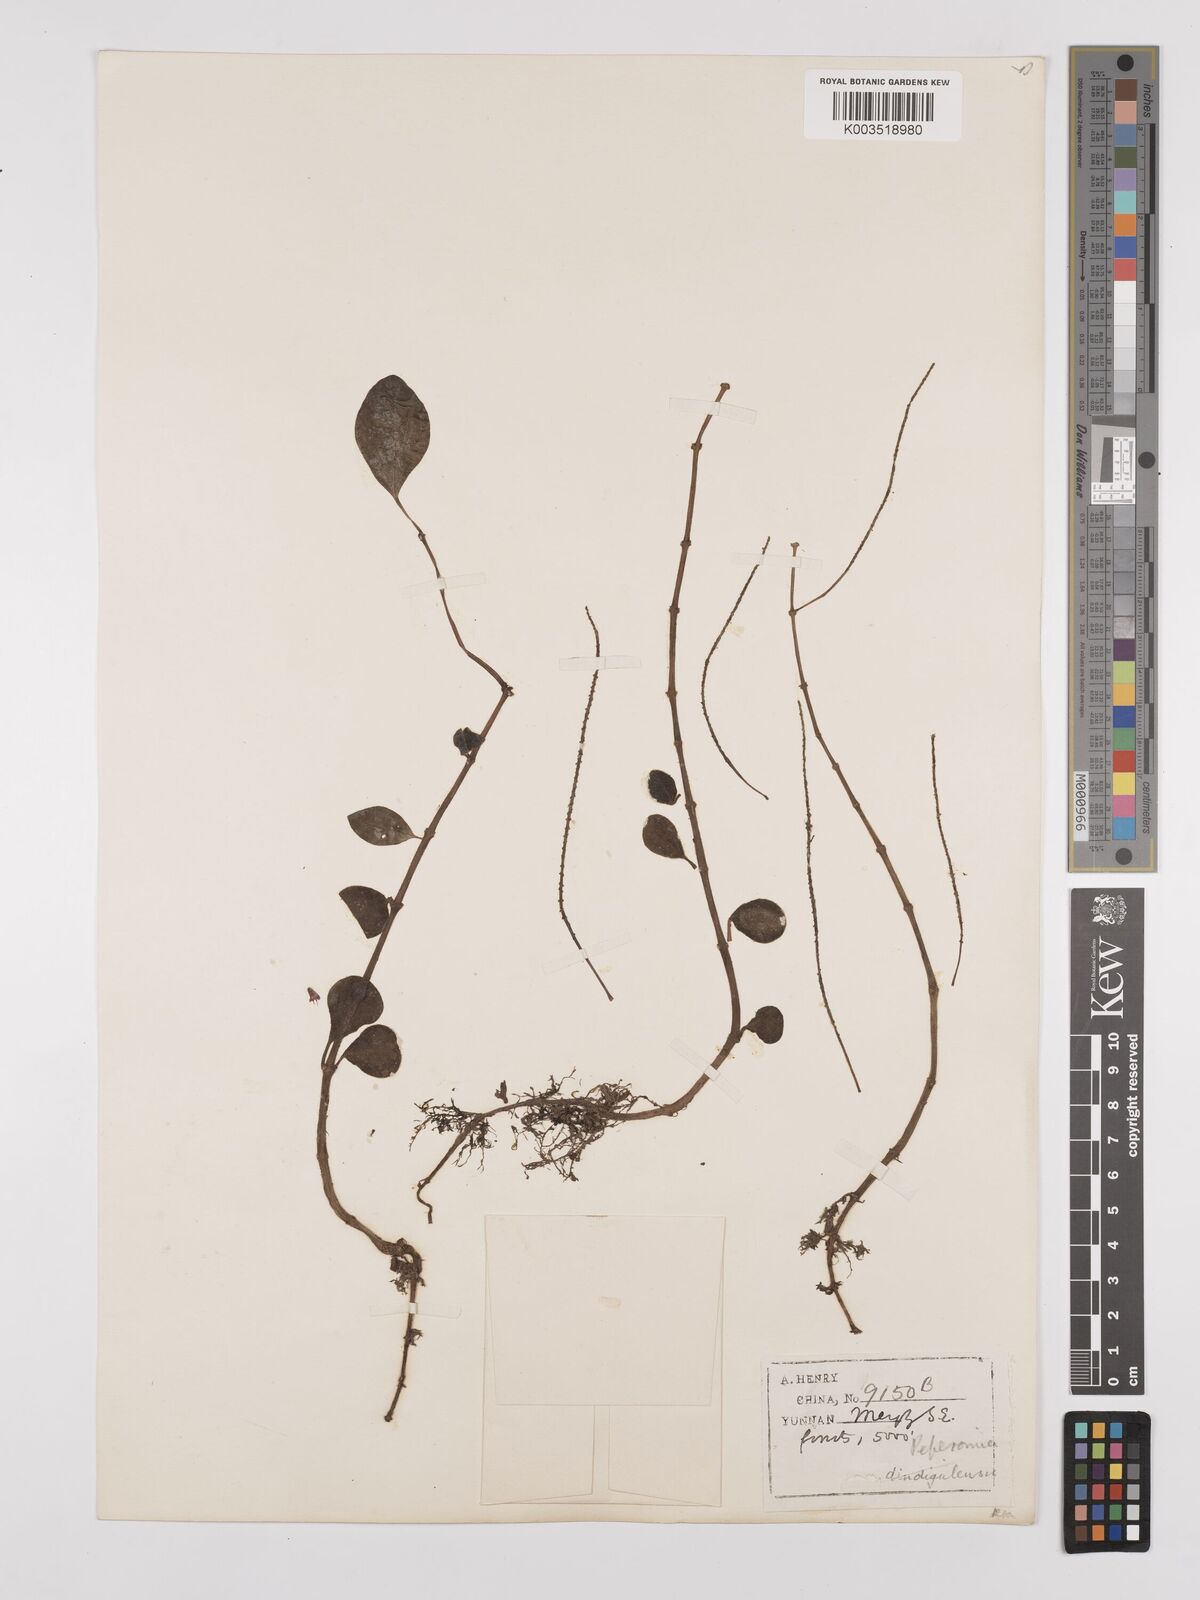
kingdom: Plantae
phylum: Tracheophyta
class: Magnoliopsida
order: Piperales
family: Piperaceae
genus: Peperomia
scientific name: Peperomia leptostachya
